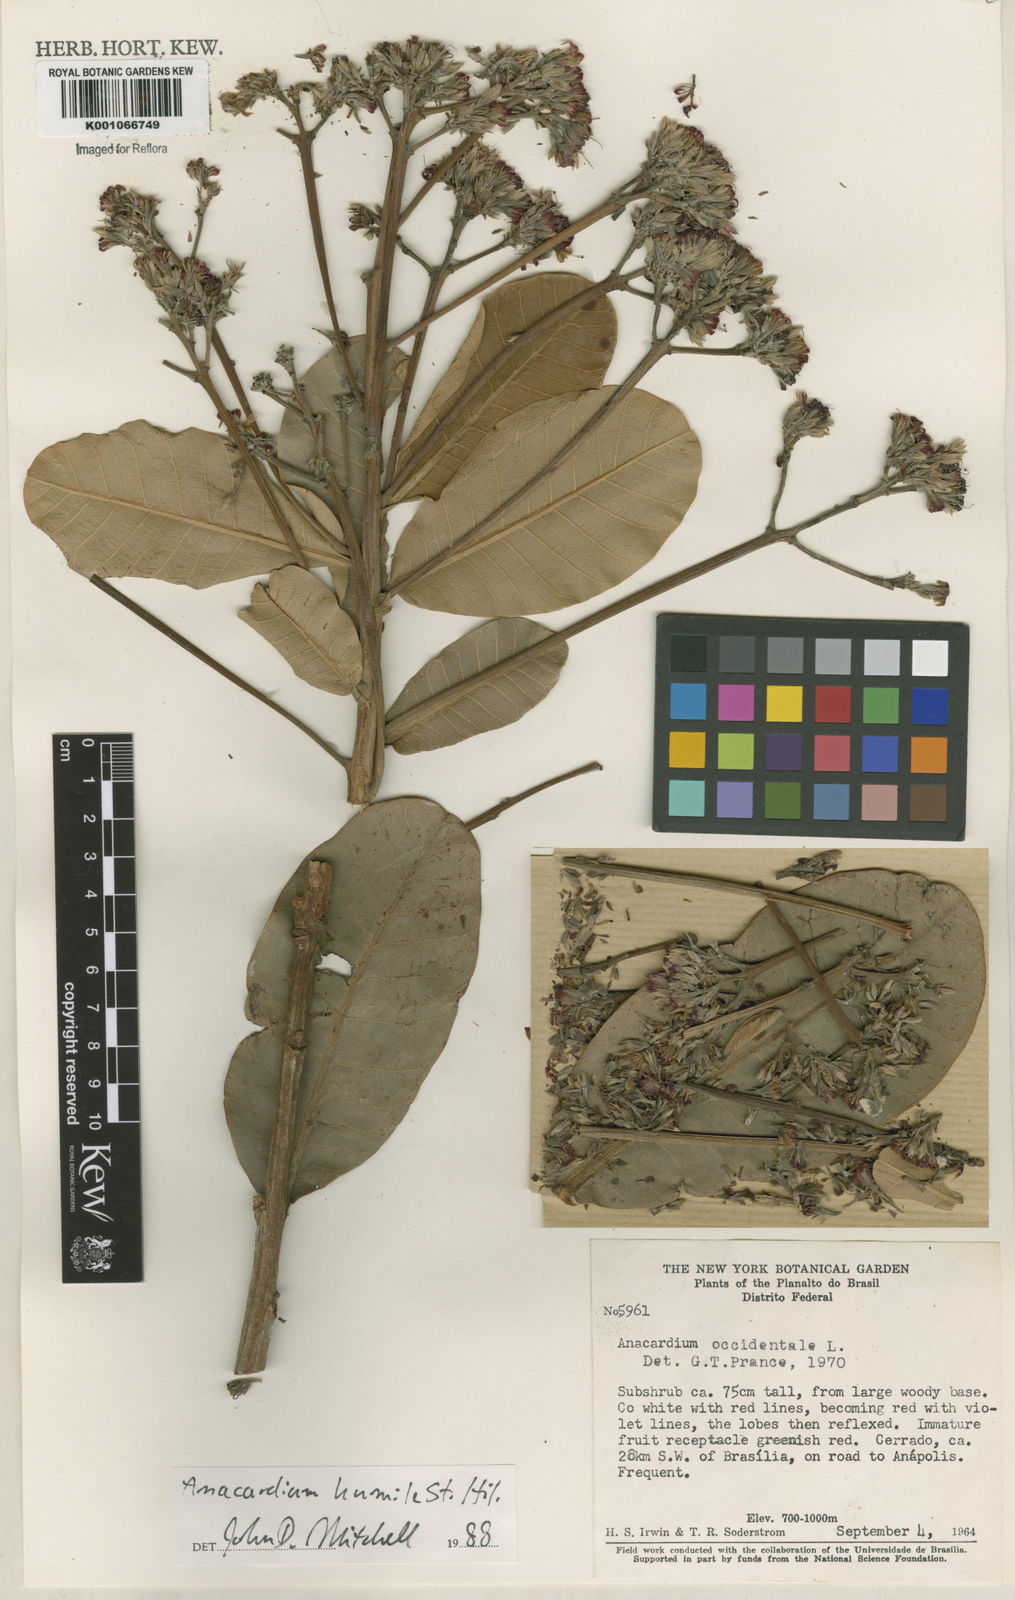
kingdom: Plantae
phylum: Tracheophyta
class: Magnoliopsida
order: Sapindales
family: Anacardiaceae
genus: Anacardium
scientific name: Anacardium humile
